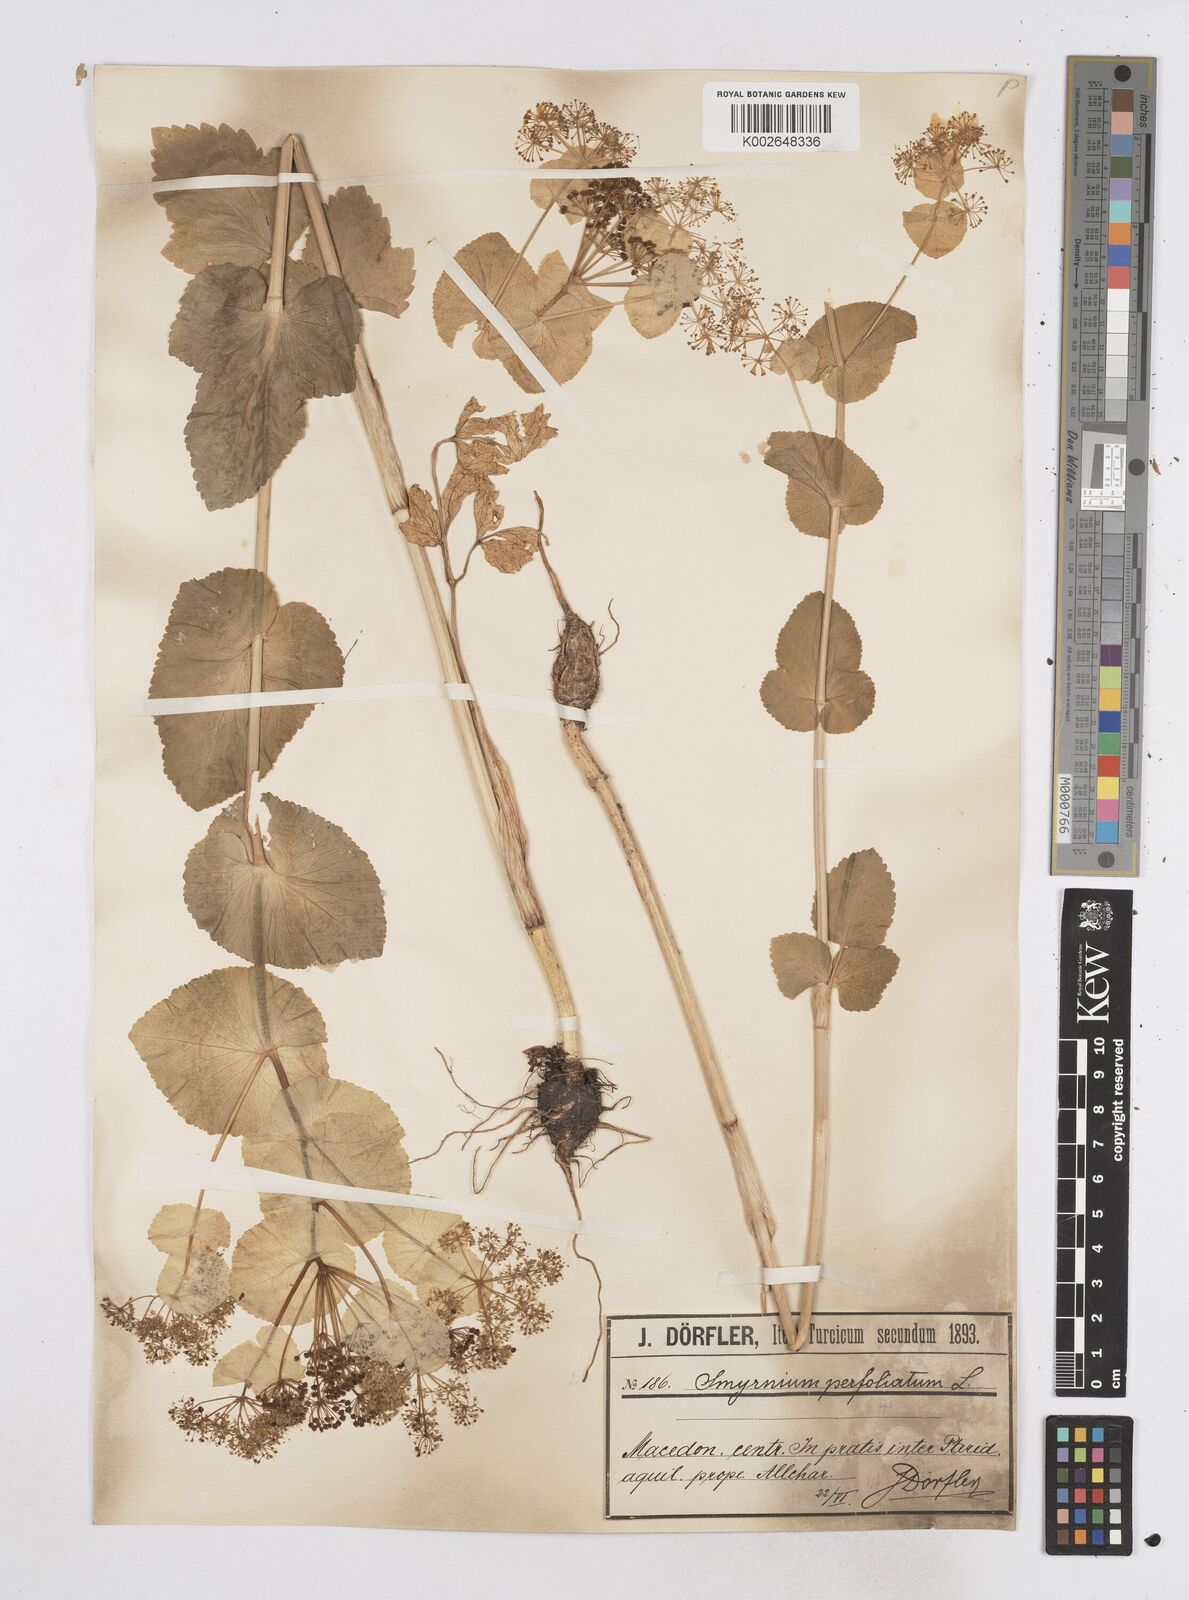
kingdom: Plantae
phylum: Tracheophyta
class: Magnoliopsida
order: Apiales
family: Apiaceae
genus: Smyrnium
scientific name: Smyrnium perfoliatum
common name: Perfoliate alexanders
